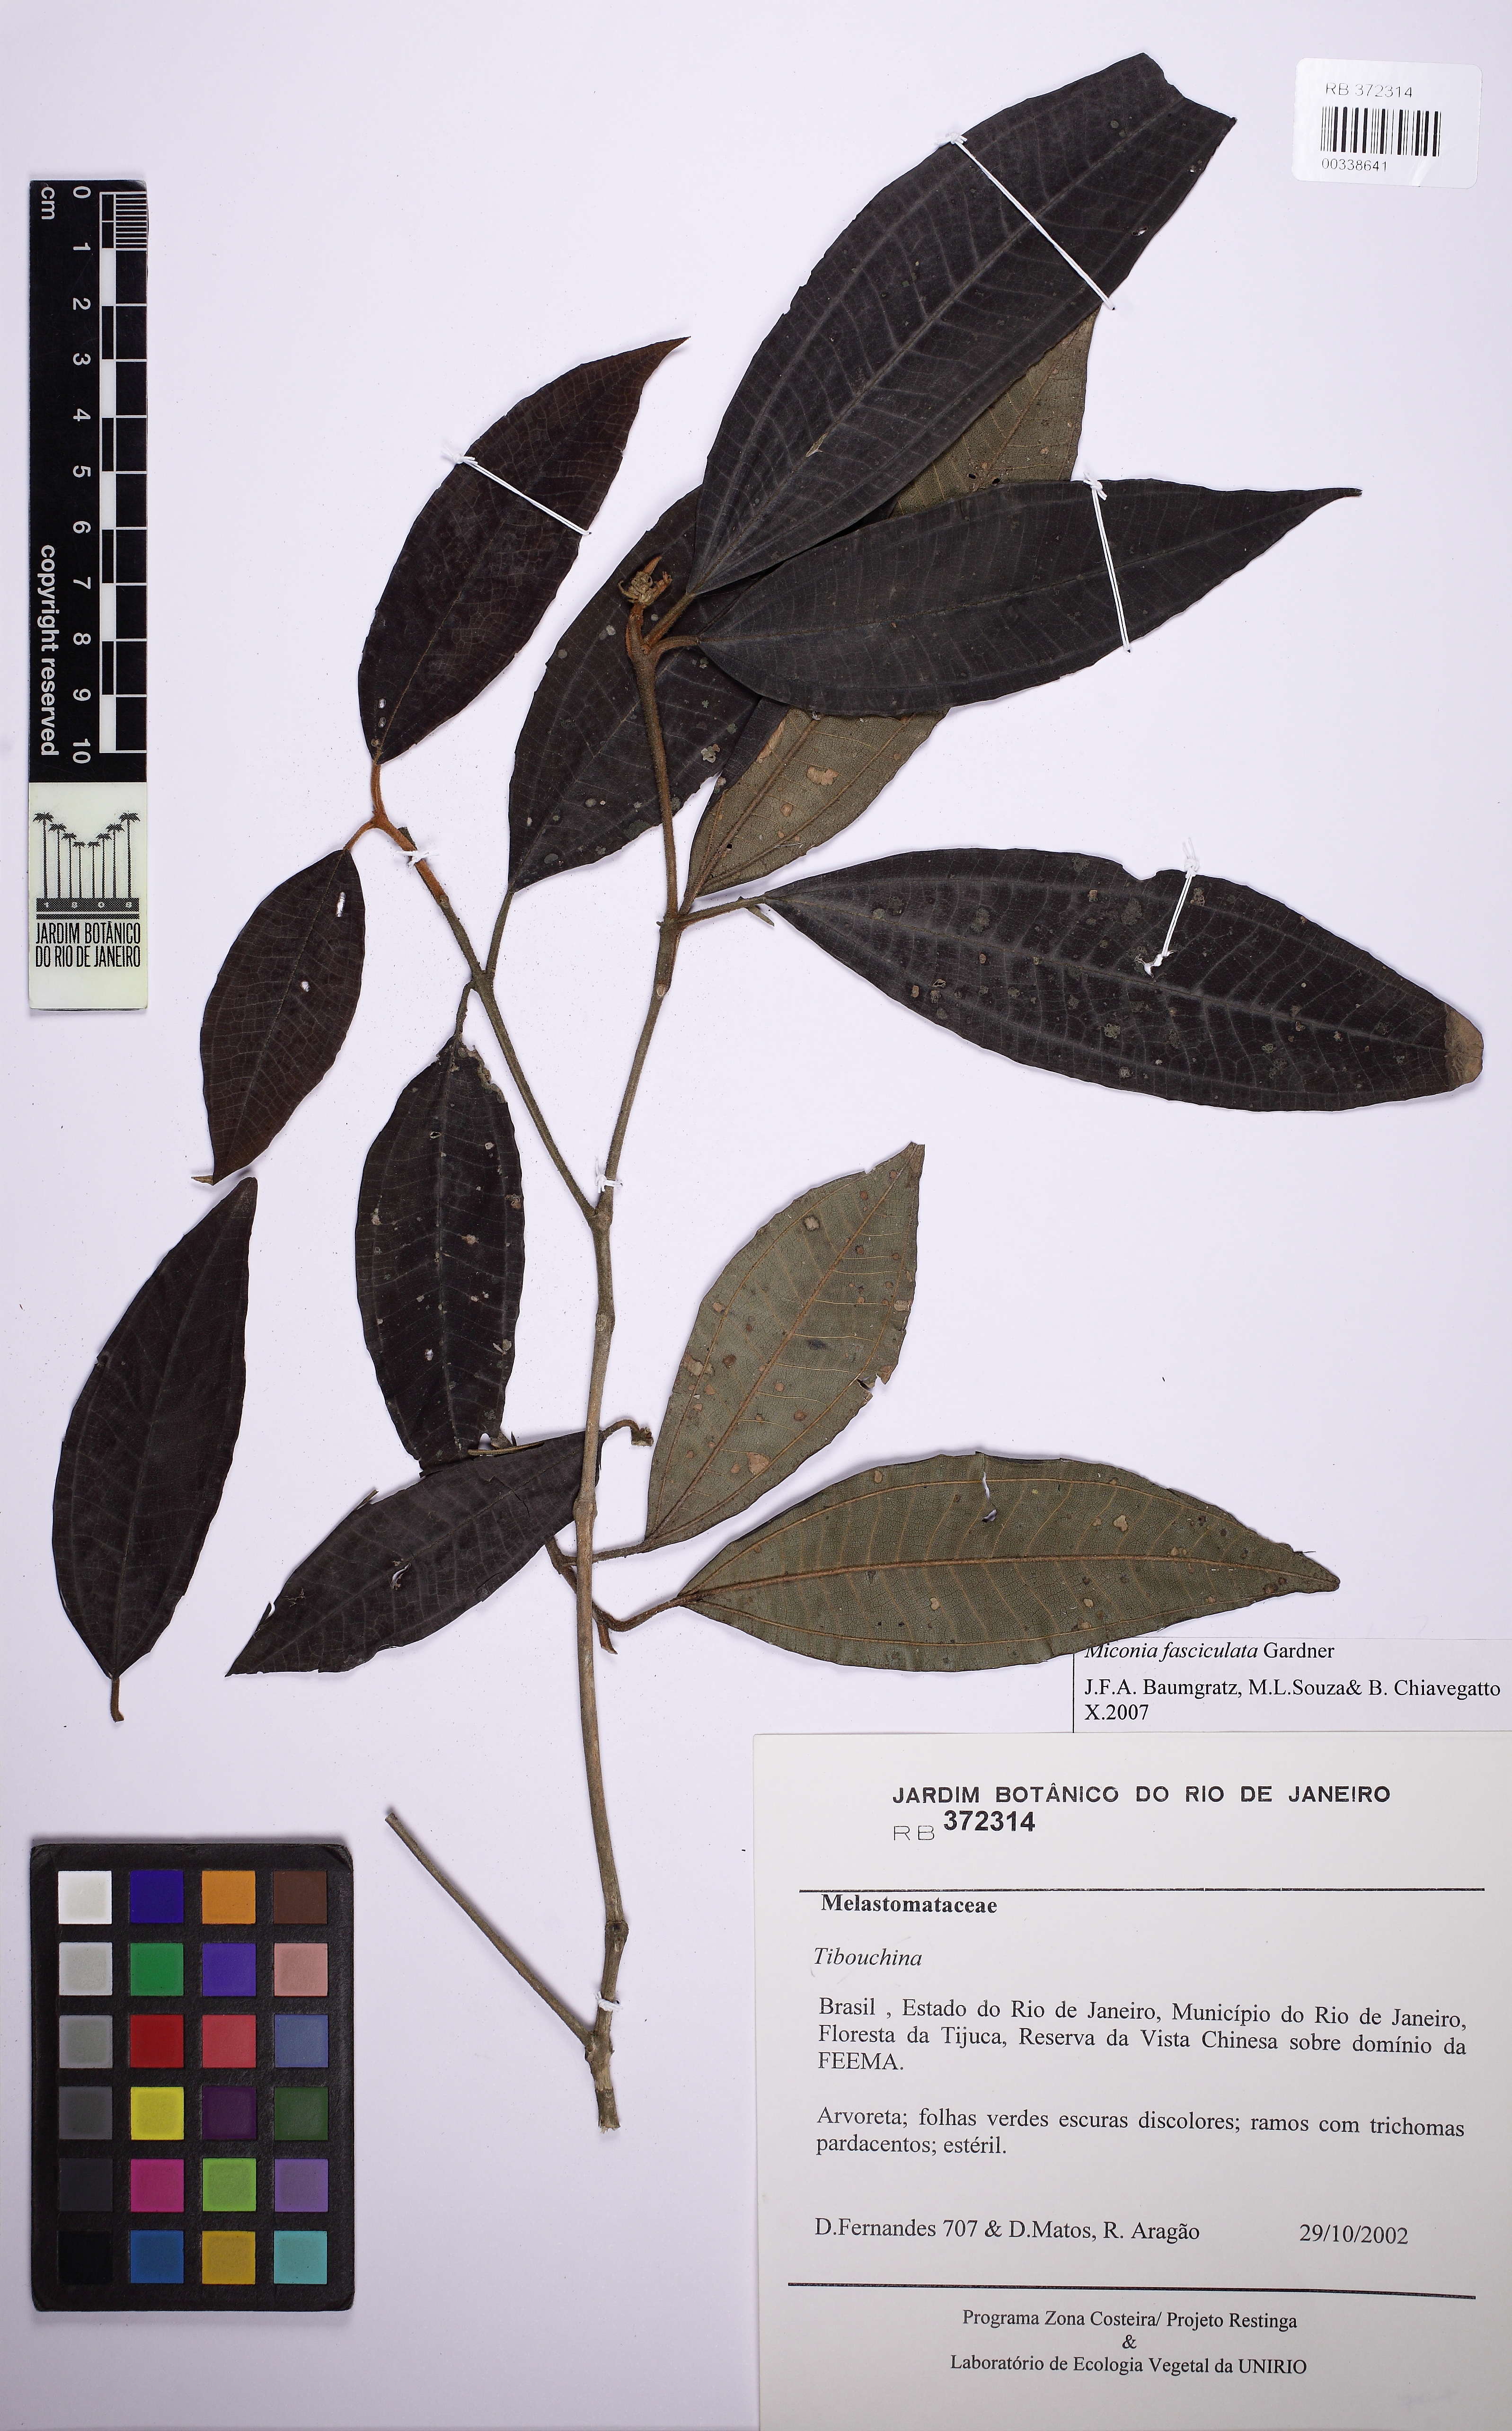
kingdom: Plantae
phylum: Tracheophyta
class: Magnoliopsida
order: Myrtales
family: Melastomataceae
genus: Miconia
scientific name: Miconia ferruginata
